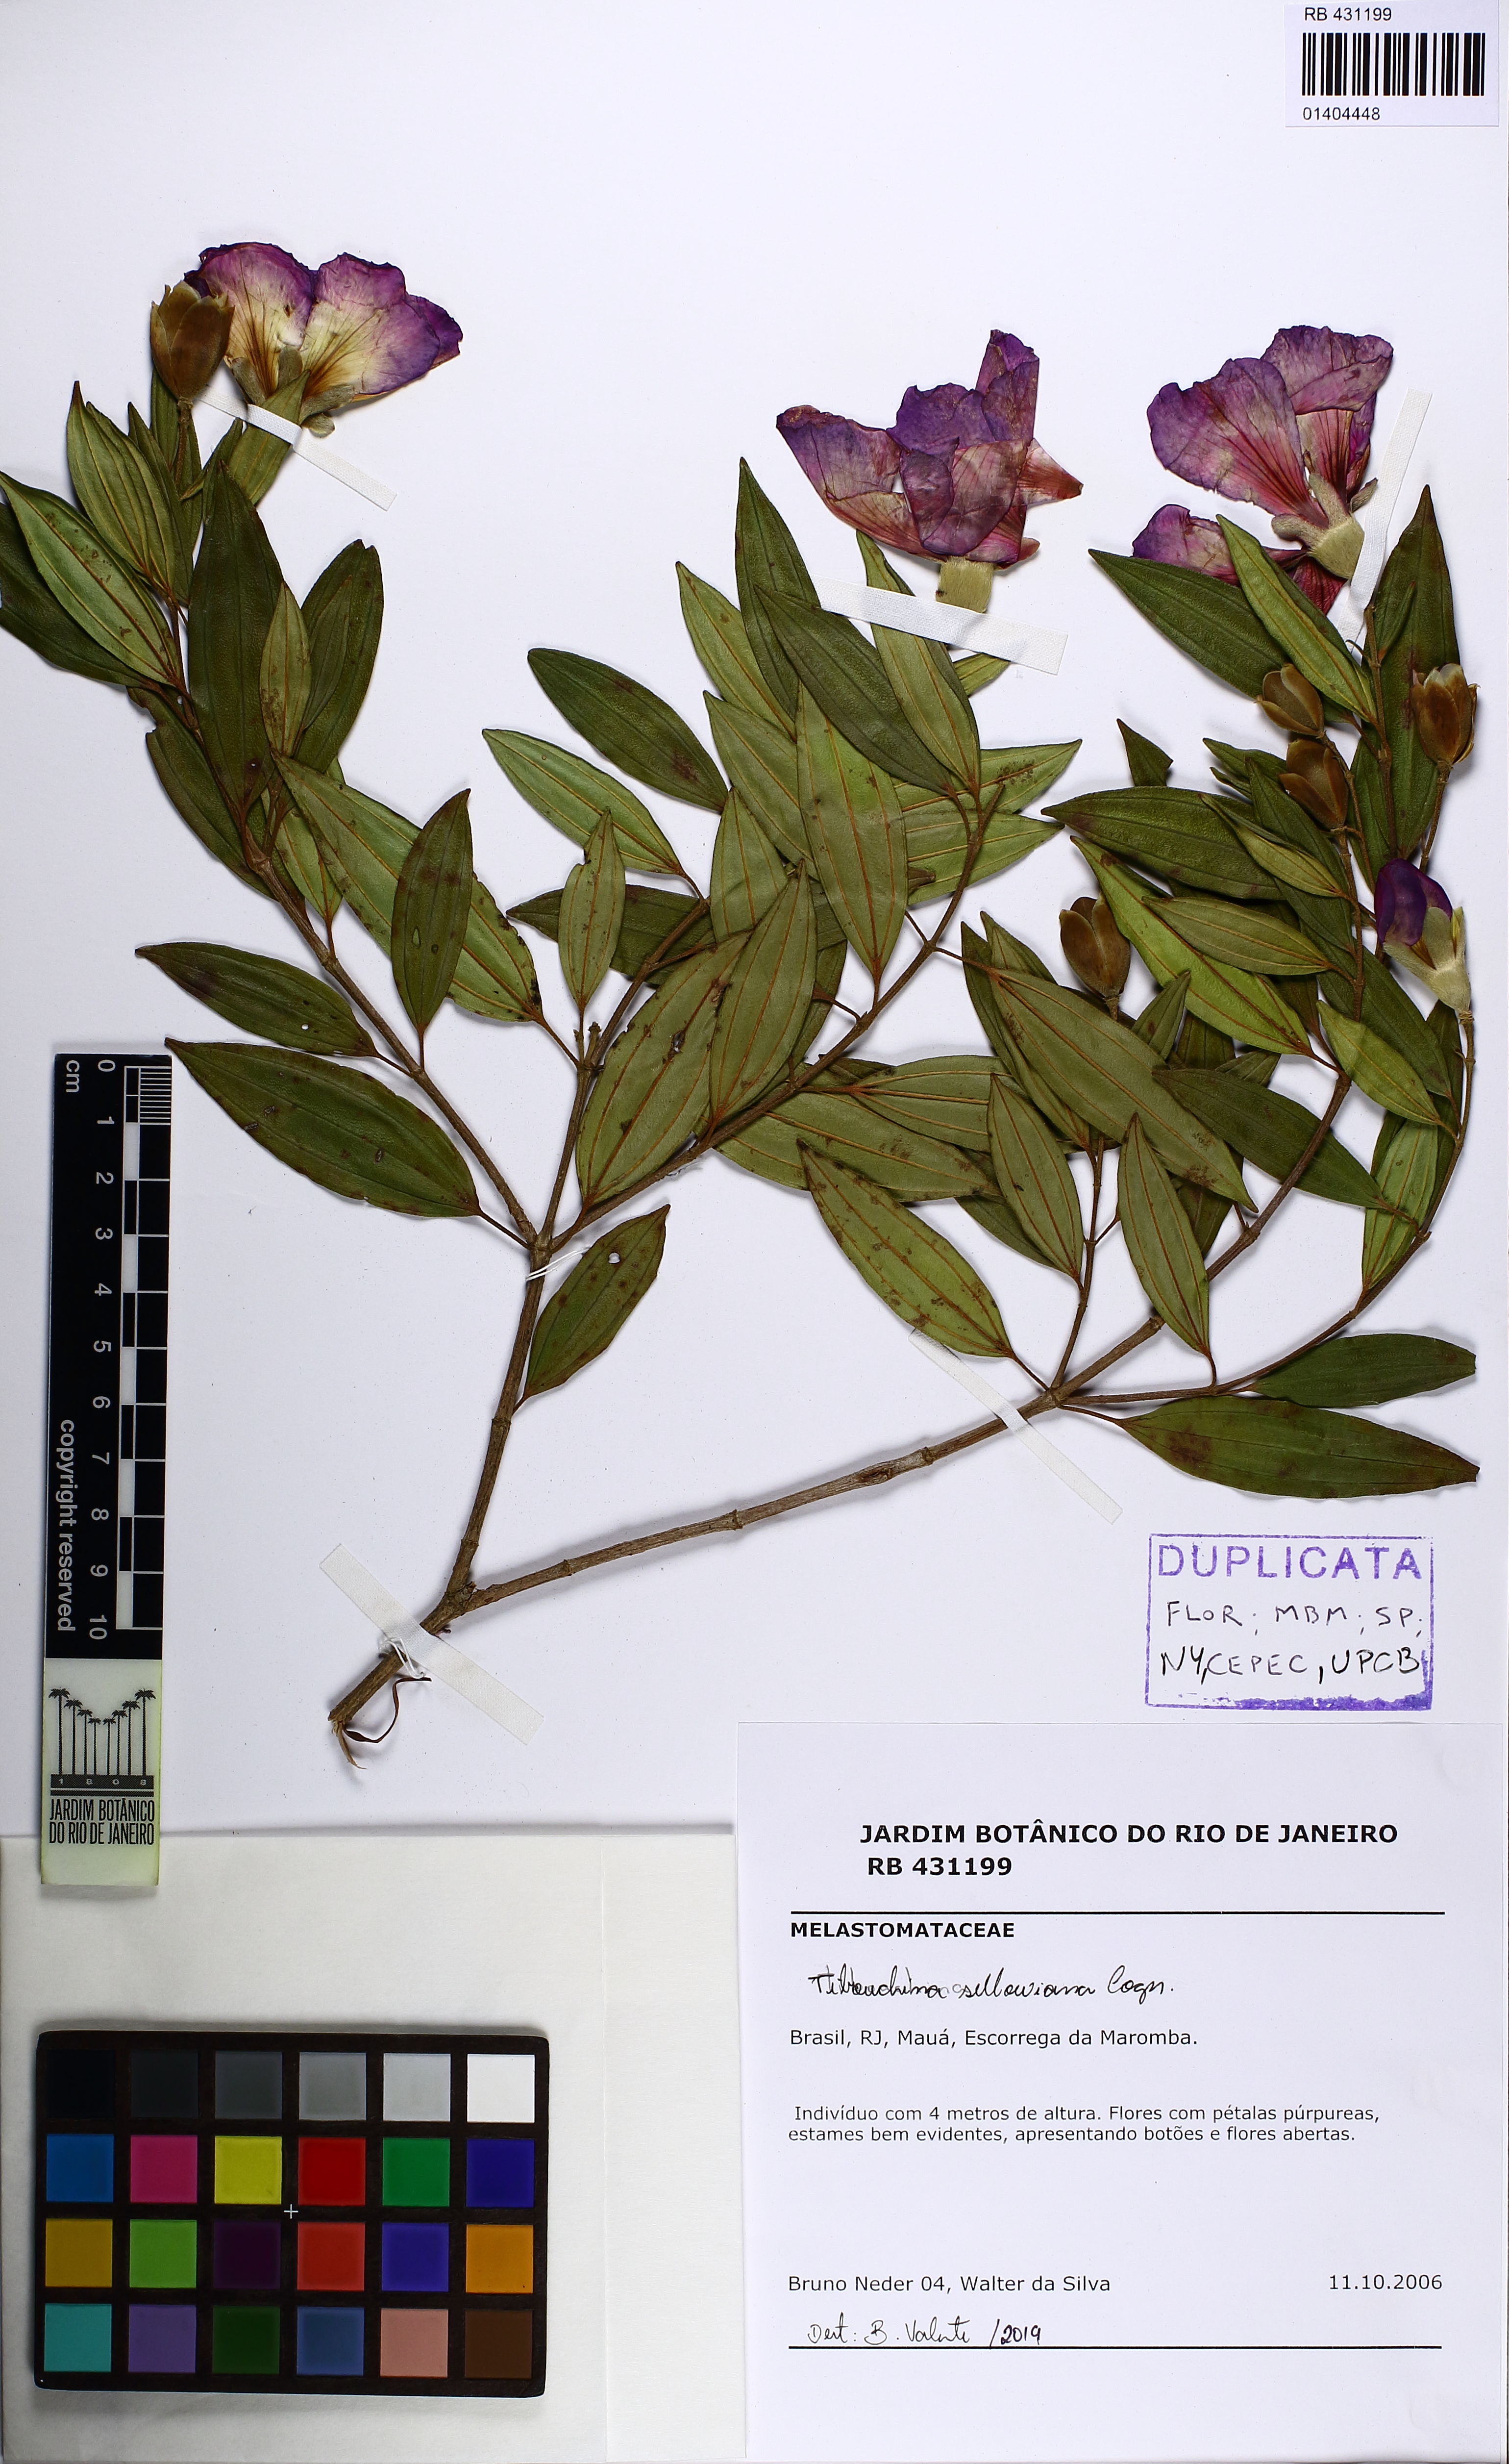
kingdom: Plantae
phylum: Tracheophyta
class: Magnoliopsida
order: Myrtales
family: Melastomataceae
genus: Pleroma
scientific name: Pleroma sellowianum
